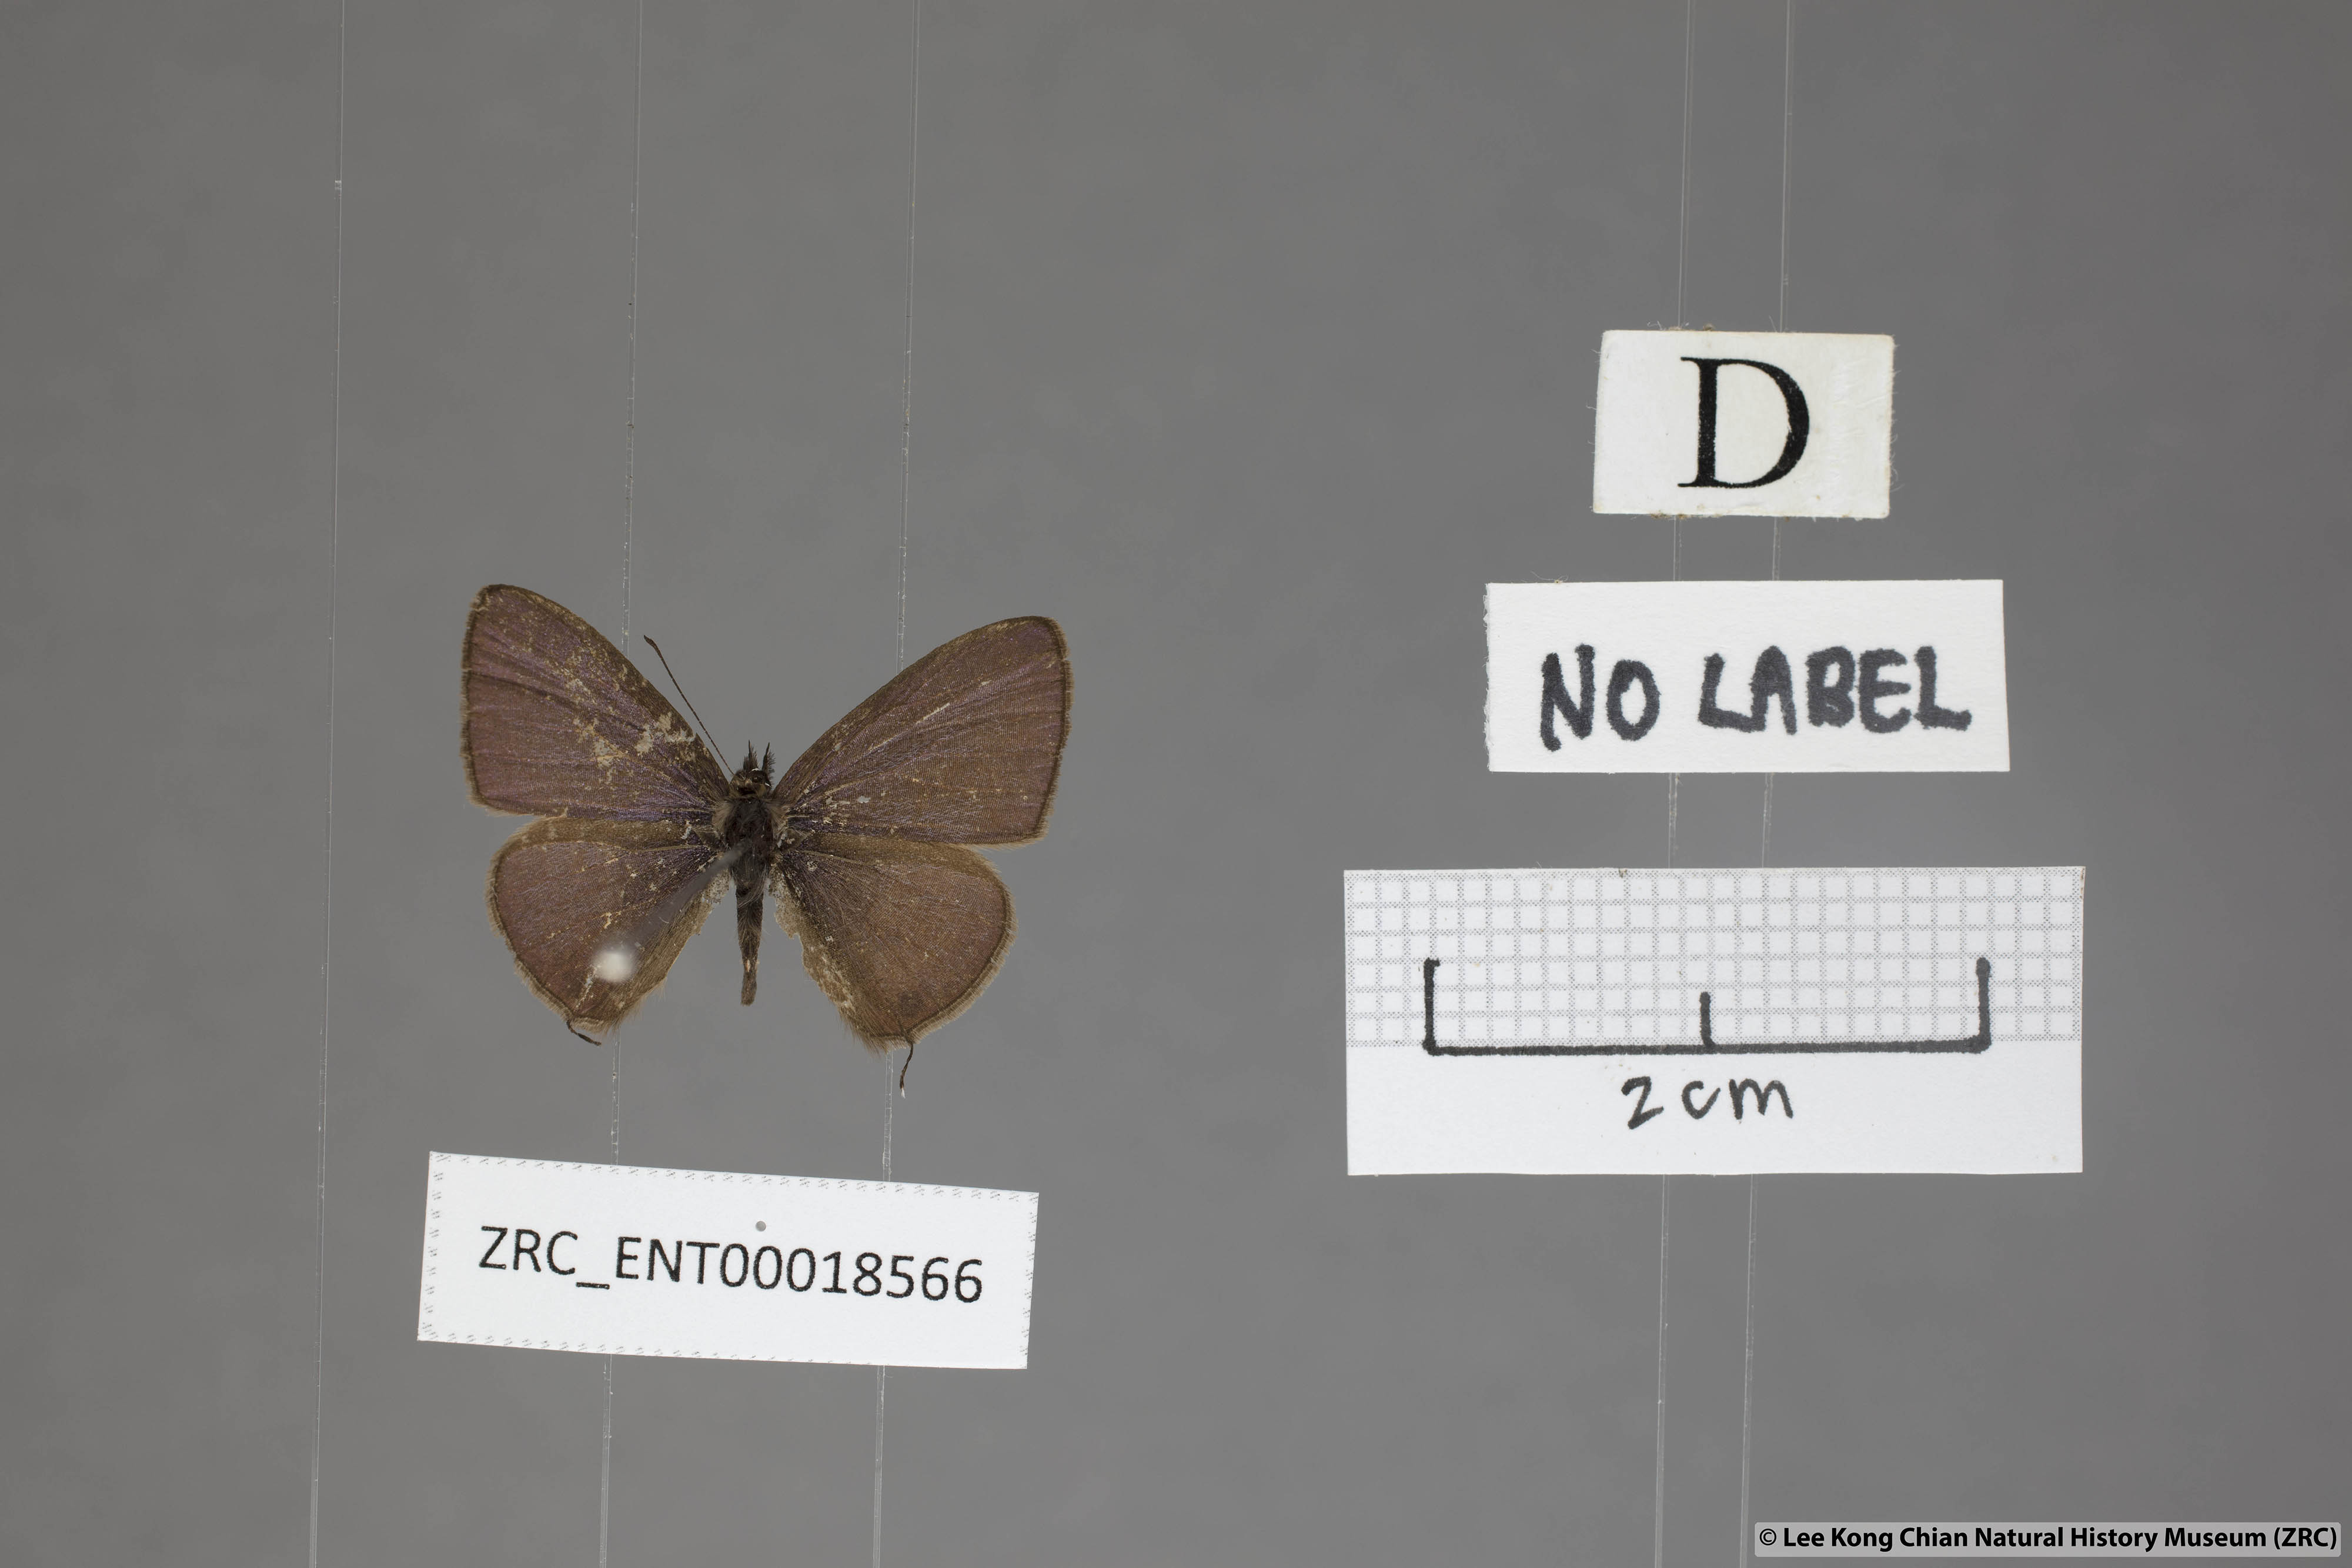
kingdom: Animalia
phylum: Arthropoda
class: Insecta
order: Lepidoptera
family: Lycaenidae
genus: Prosotas
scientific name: Prosotas bhutea
